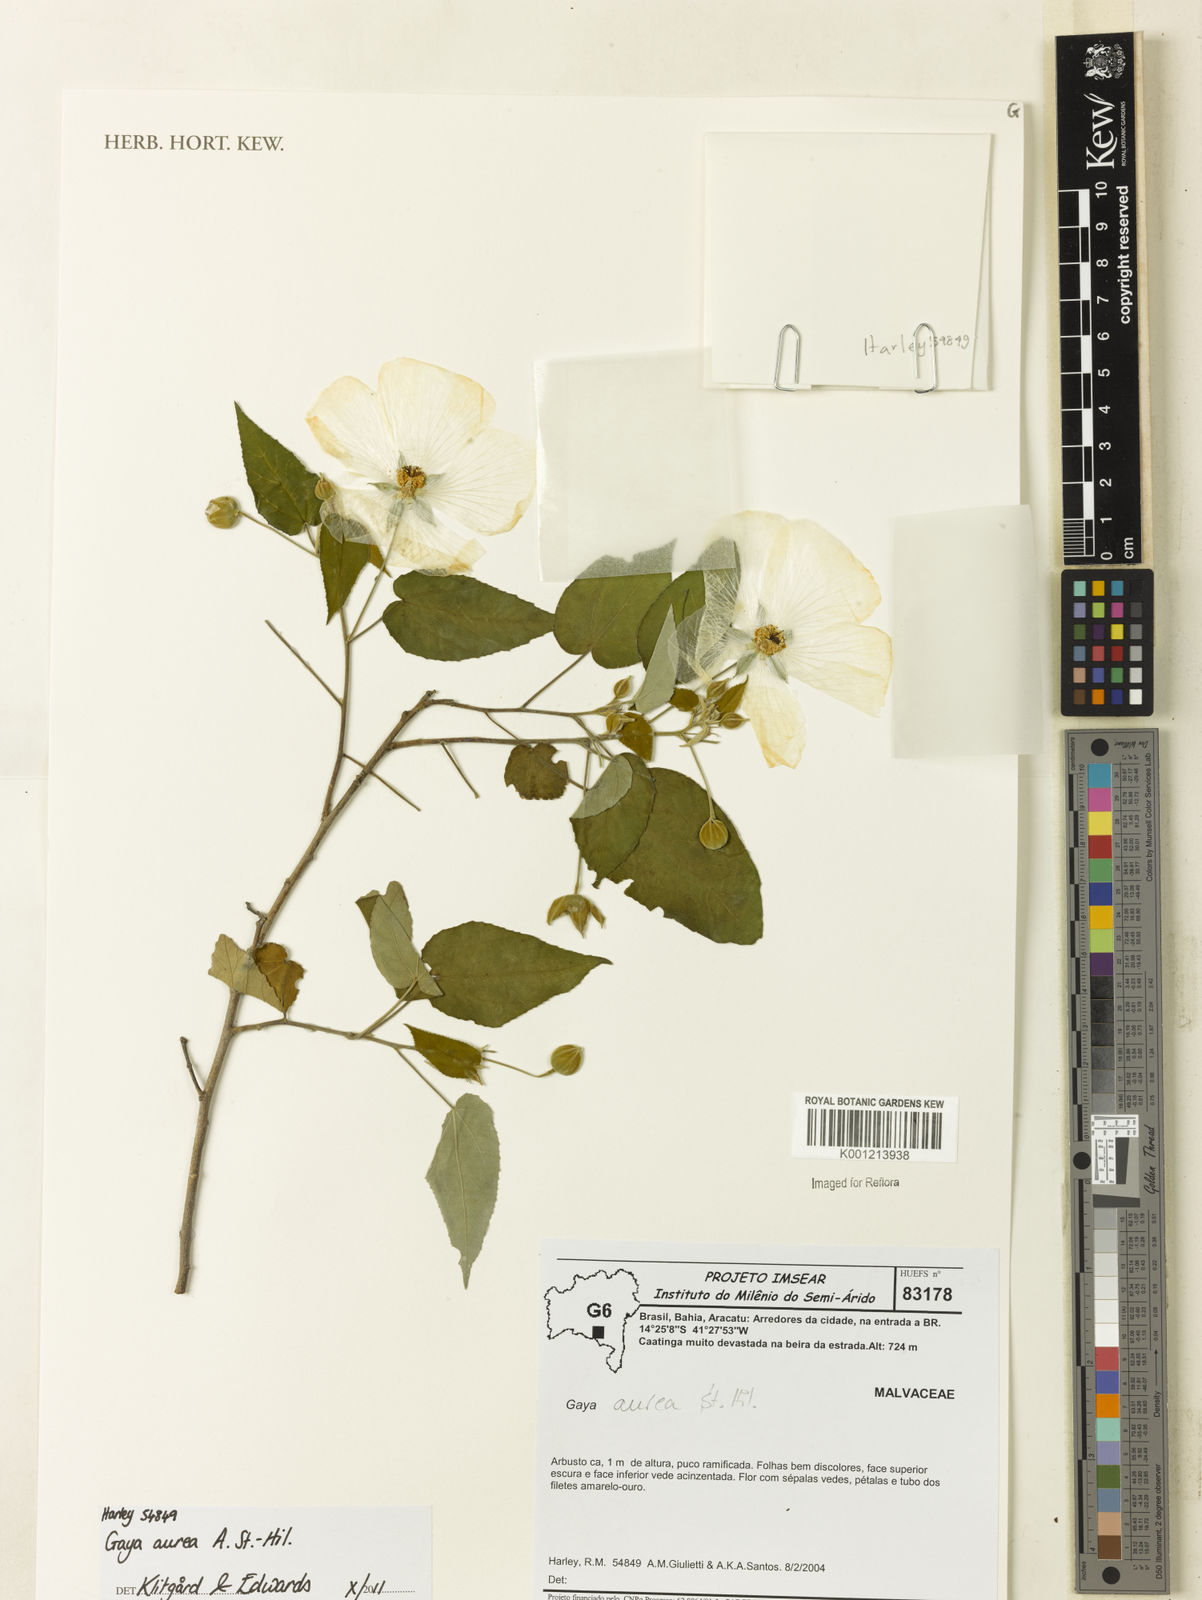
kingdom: Plantae
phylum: Tracheophyta
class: Magnoliopsida
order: Malvales
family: Malvaceae
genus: Gaya
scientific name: Gaya aurea
